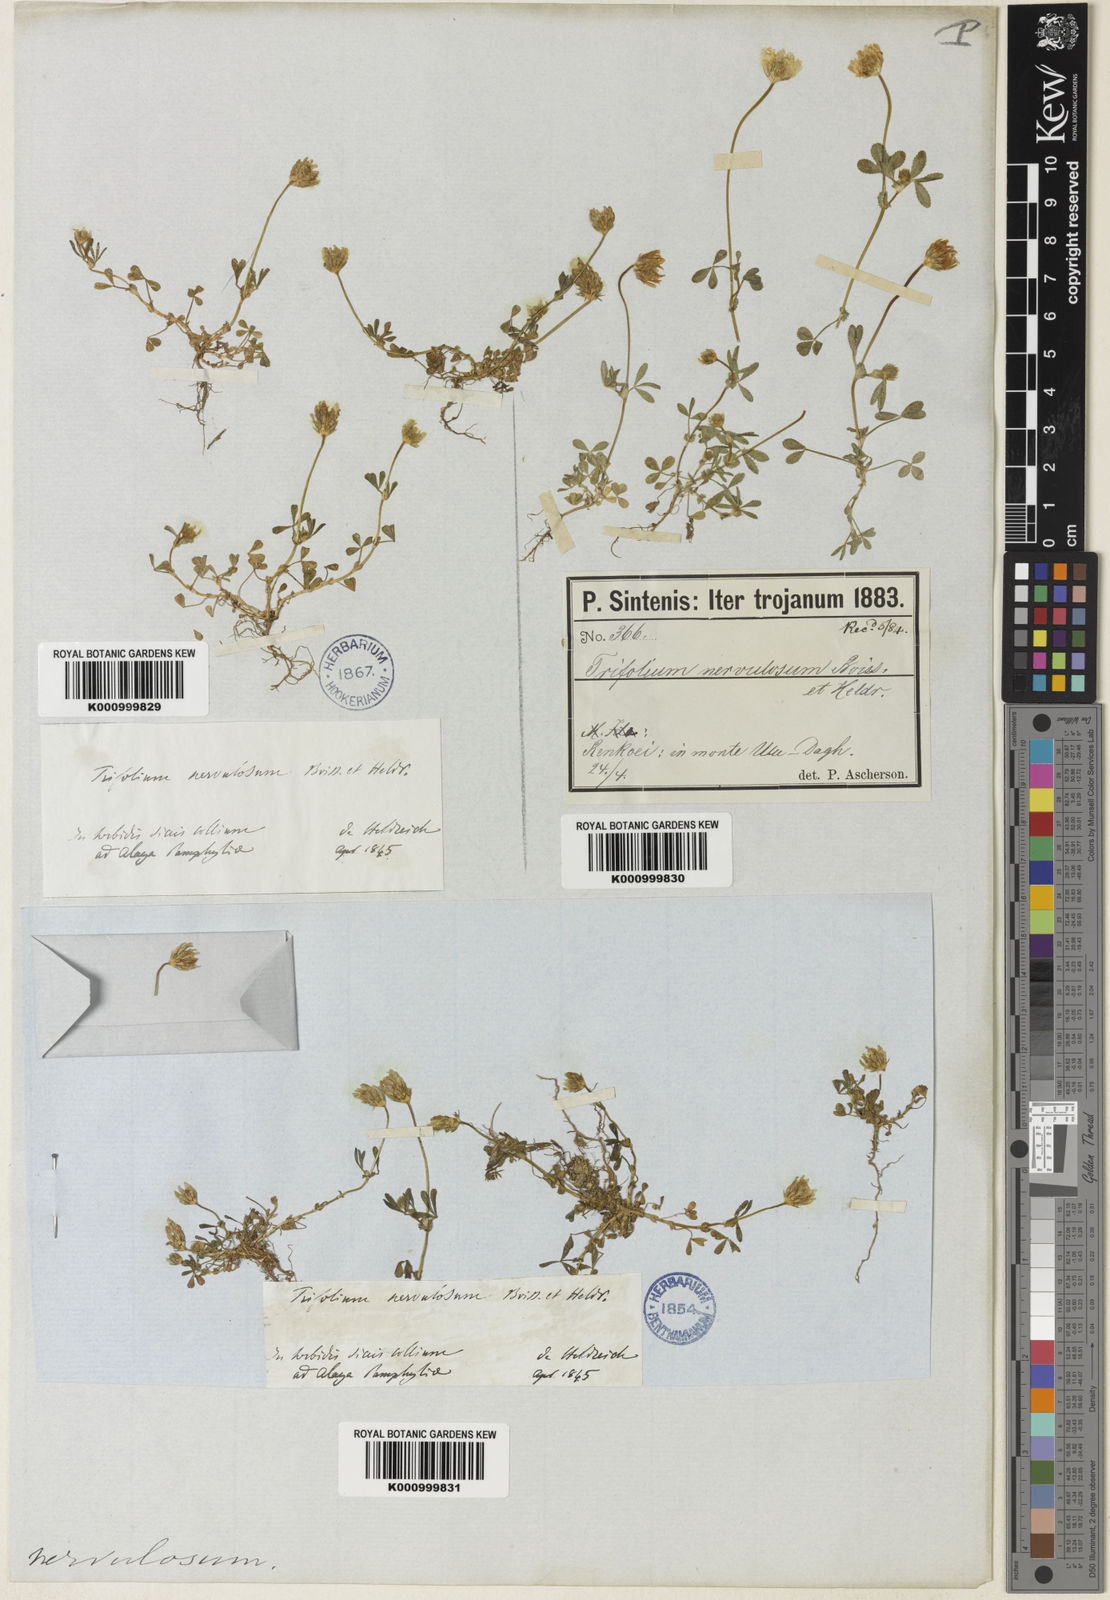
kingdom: Plantae
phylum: Tracheophyta
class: Magnoliopsida
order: Fabales
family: Fabaceae
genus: Trifolium
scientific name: Trifolium glanduliferum
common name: Glandular clover
